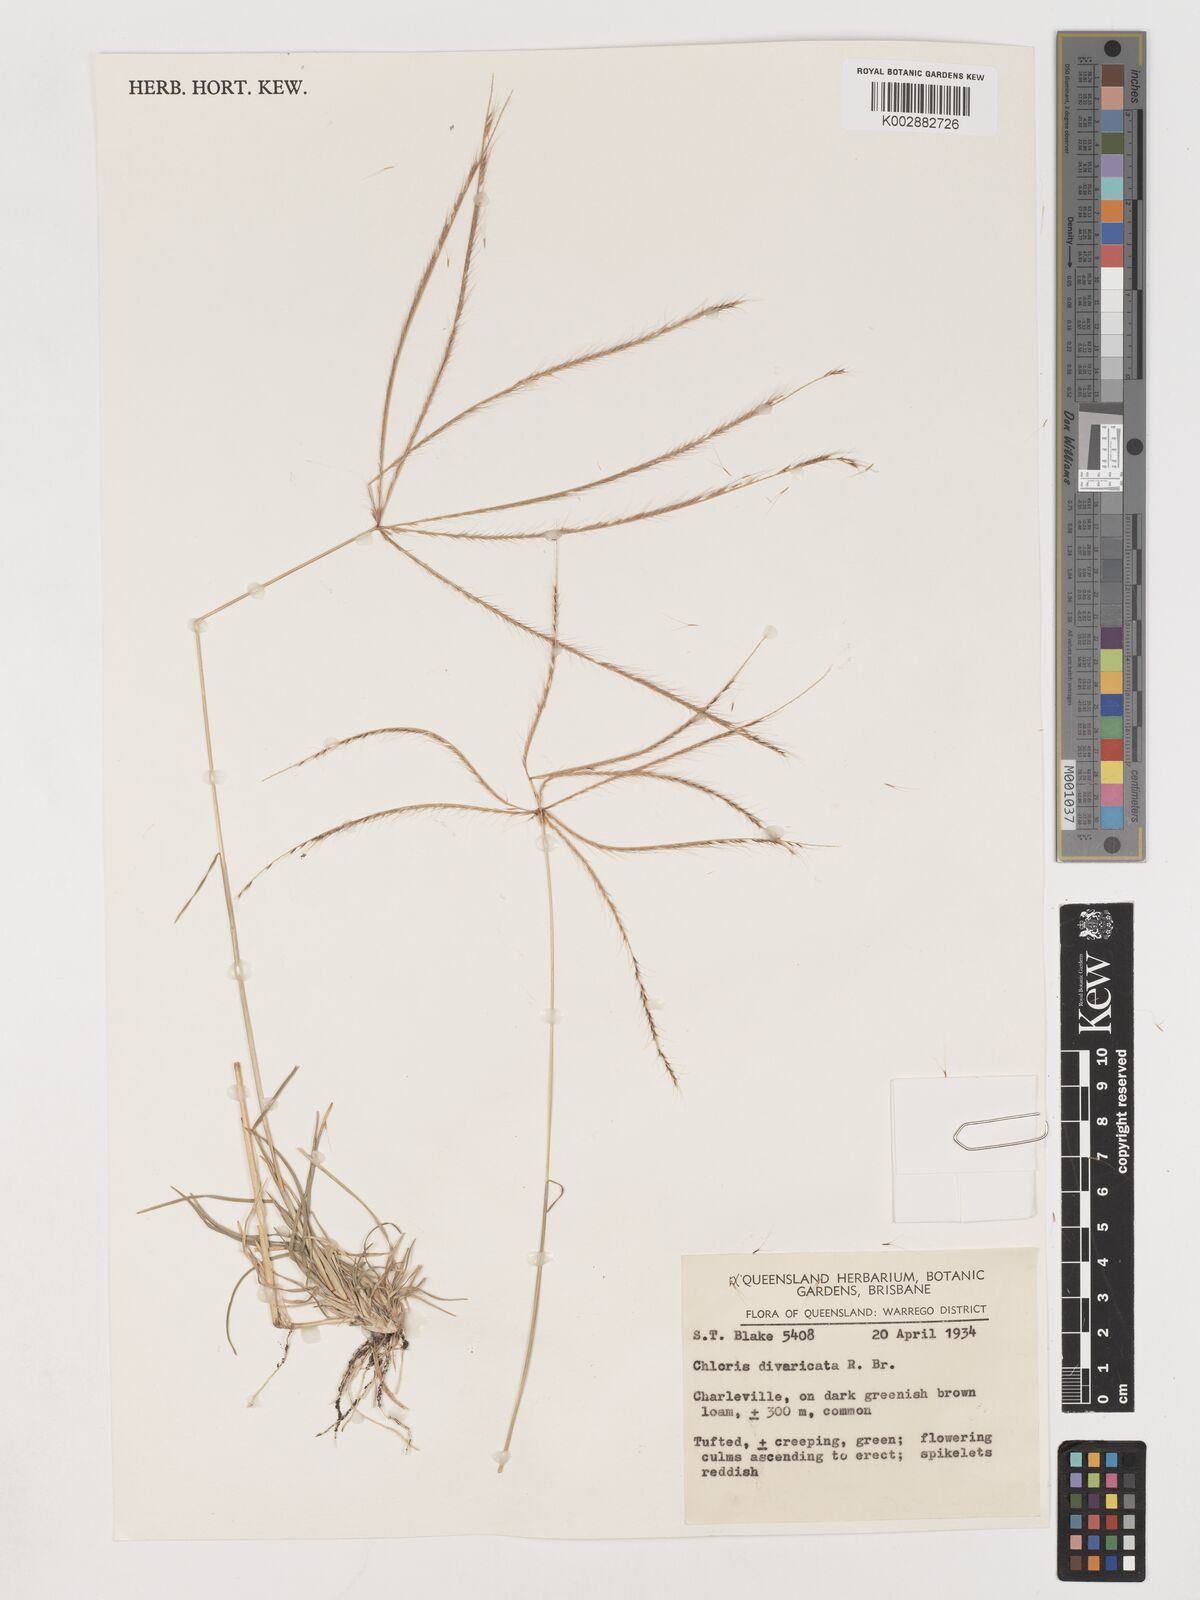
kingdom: Plantae
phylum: Tracheophyta
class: Liliopsida
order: Poales
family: Poaceae
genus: Chloris
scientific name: Chloris divaricata
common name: Spreading windmill grass
